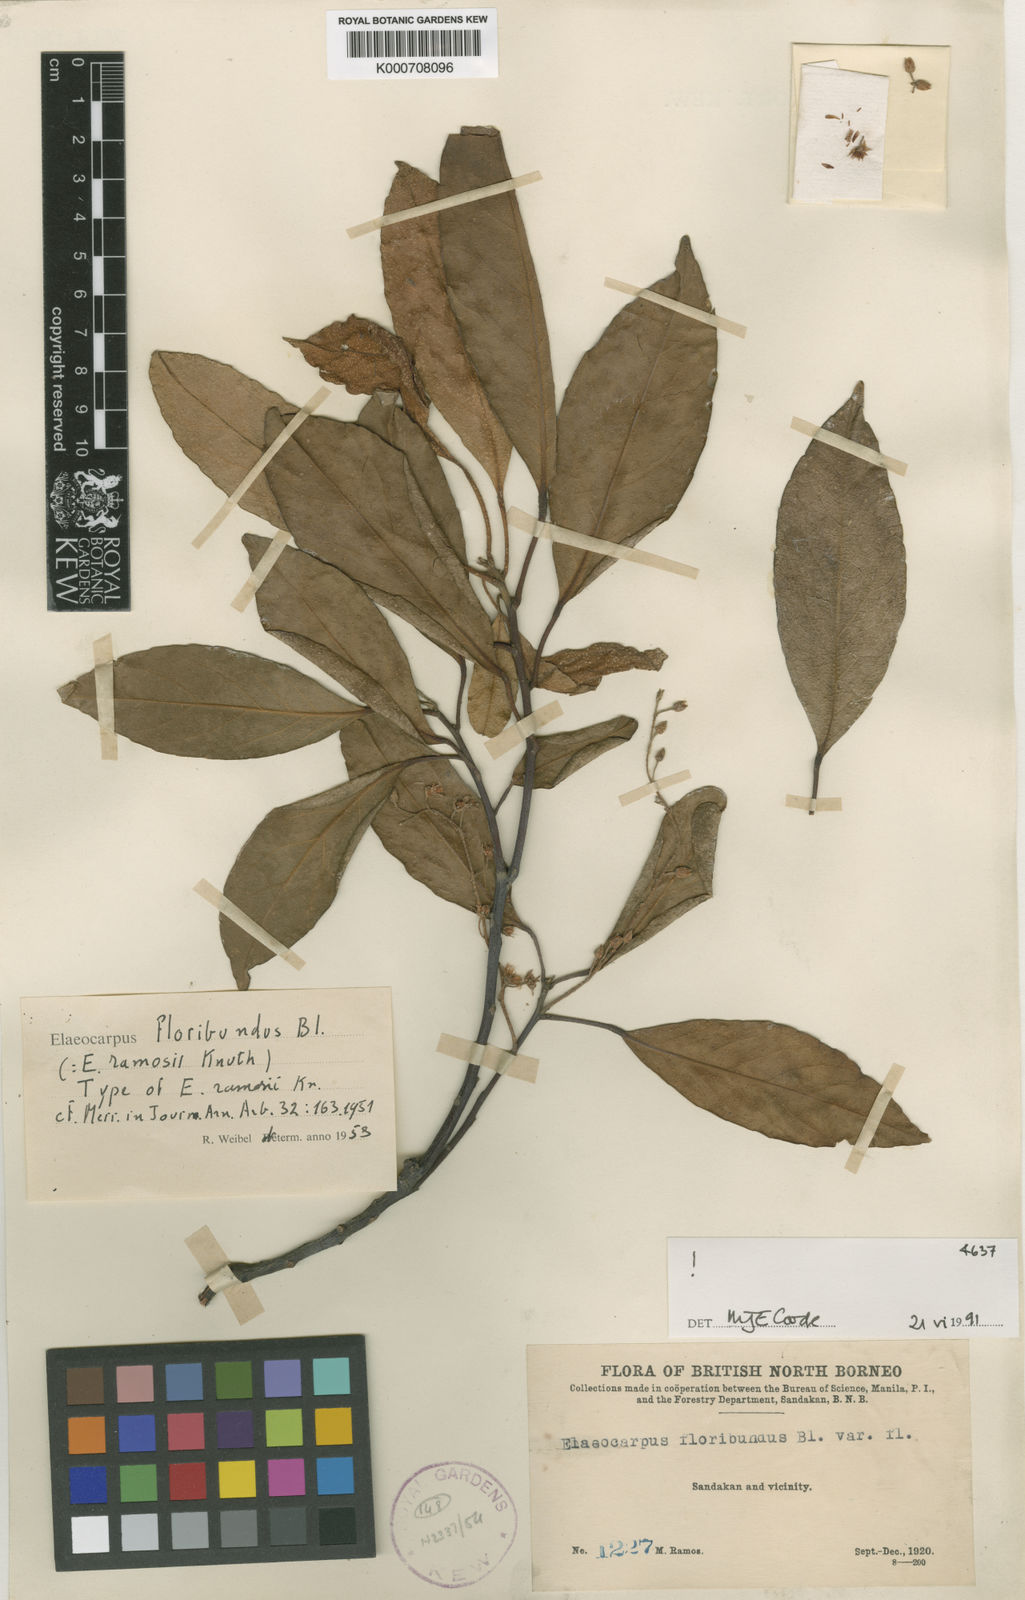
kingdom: Plantae
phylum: Tracheophyta
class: Magnoliopsida
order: Oxalidales
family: Elaeocarpaceae
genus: Elaeocarpus
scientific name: Elaeocarpus floribundus
